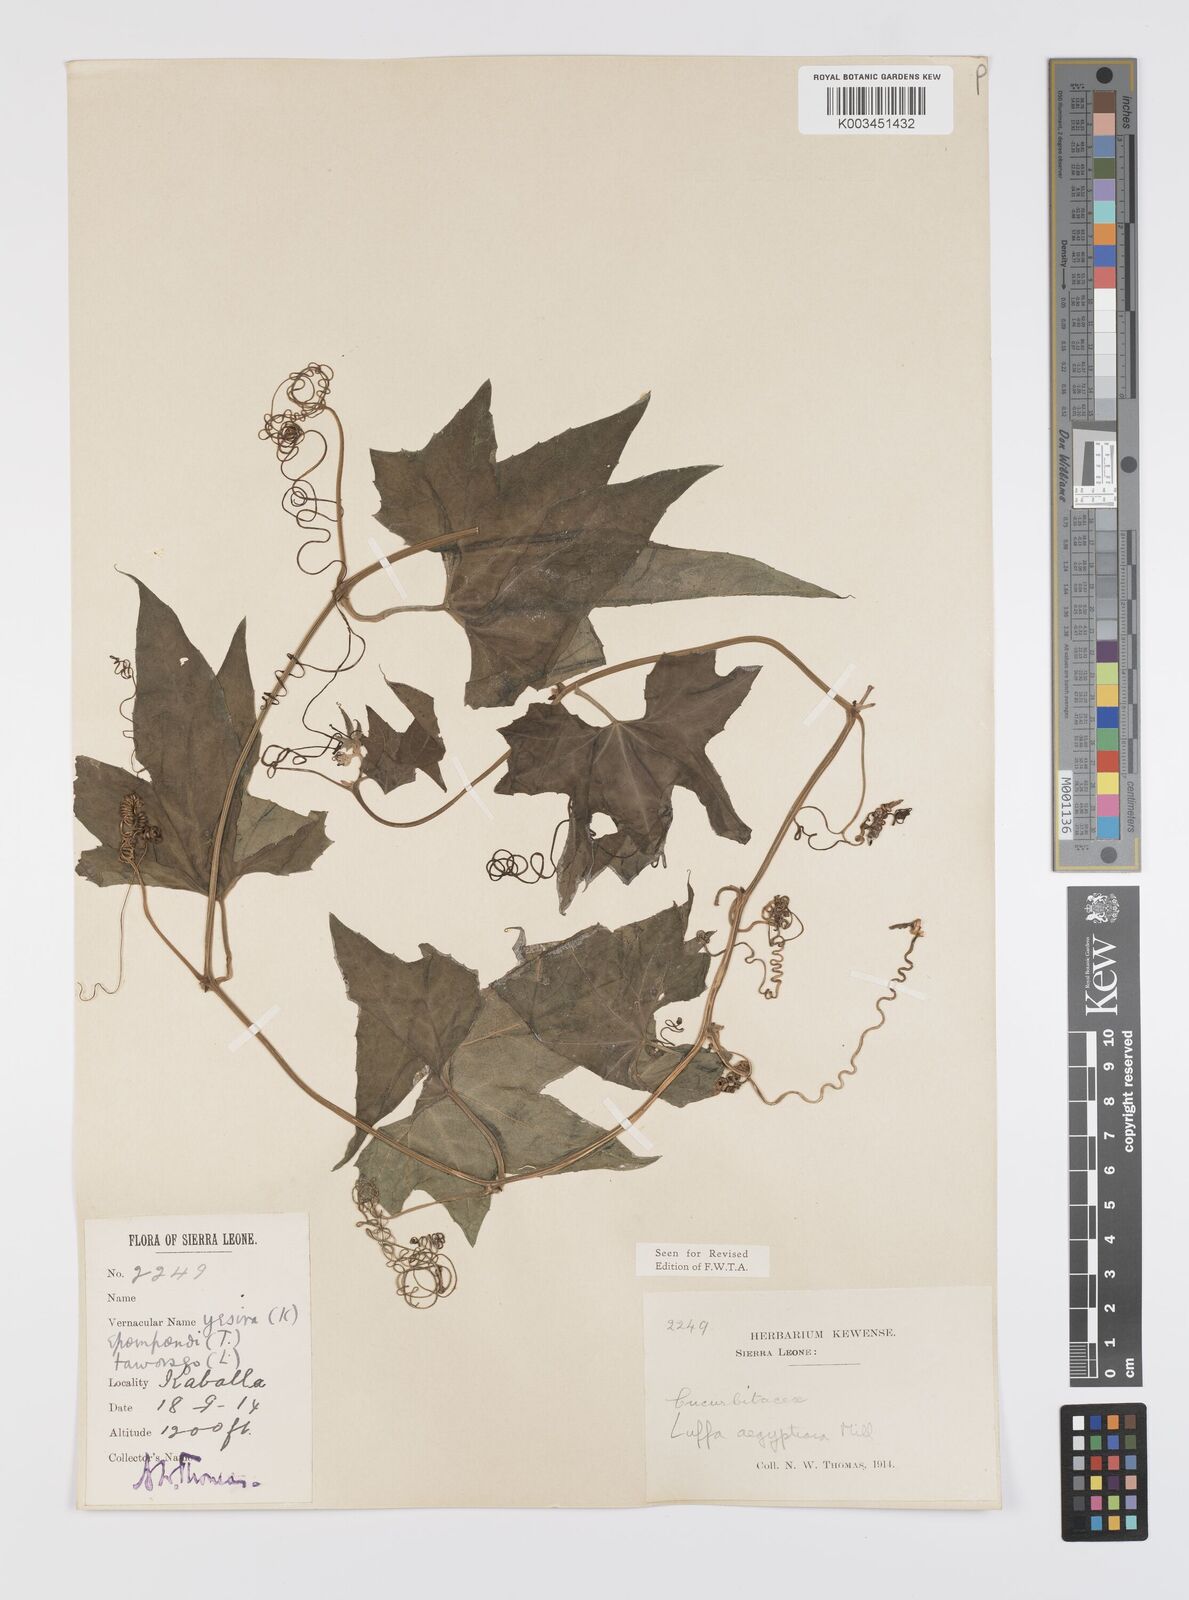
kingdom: Plantae
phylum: Tracheophyta
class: Magnoliopsida
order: Cucurbitales
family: Cucurbitaceae
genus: Luffa
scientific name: Luffa aegyptiaca
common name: Sponge gourd
